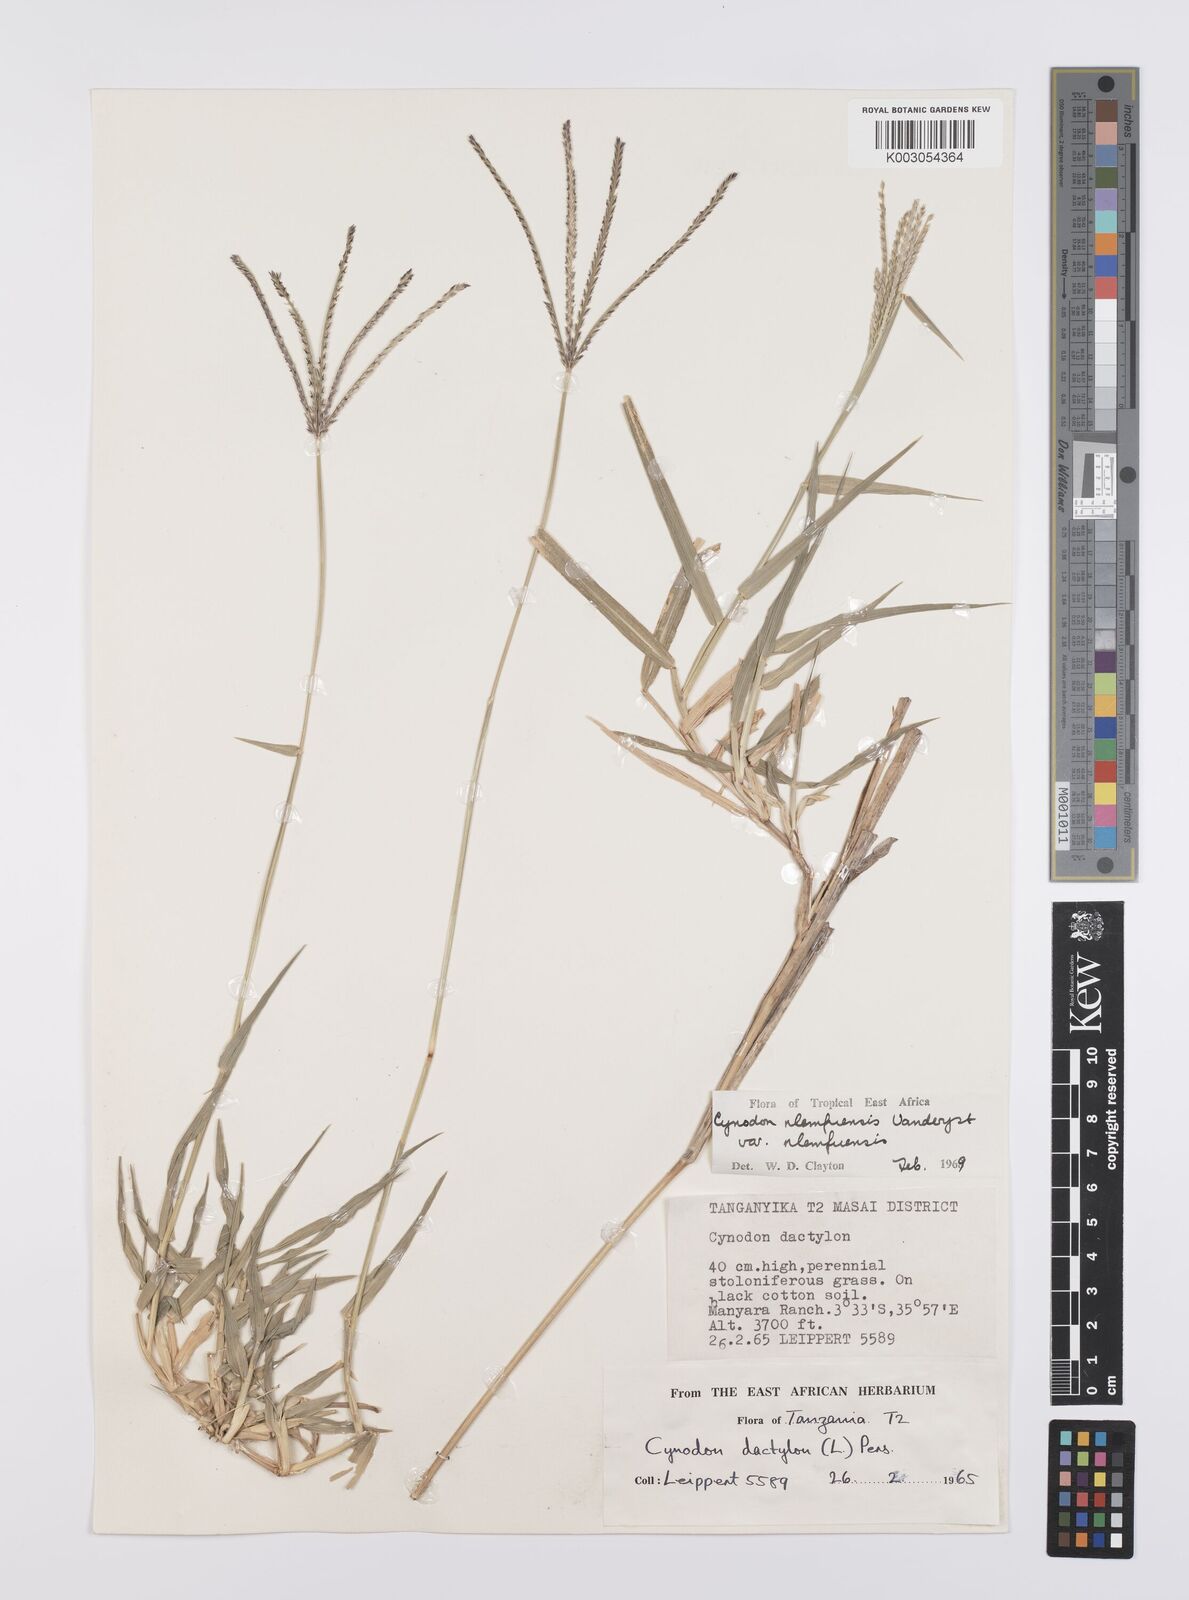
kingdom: Plantae
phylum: Tracheophyta
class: Liliopsida
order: Poales
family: Poaceae
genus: Cynodon
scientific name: Cynodon nlemfuensis
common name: African bermudagrass
